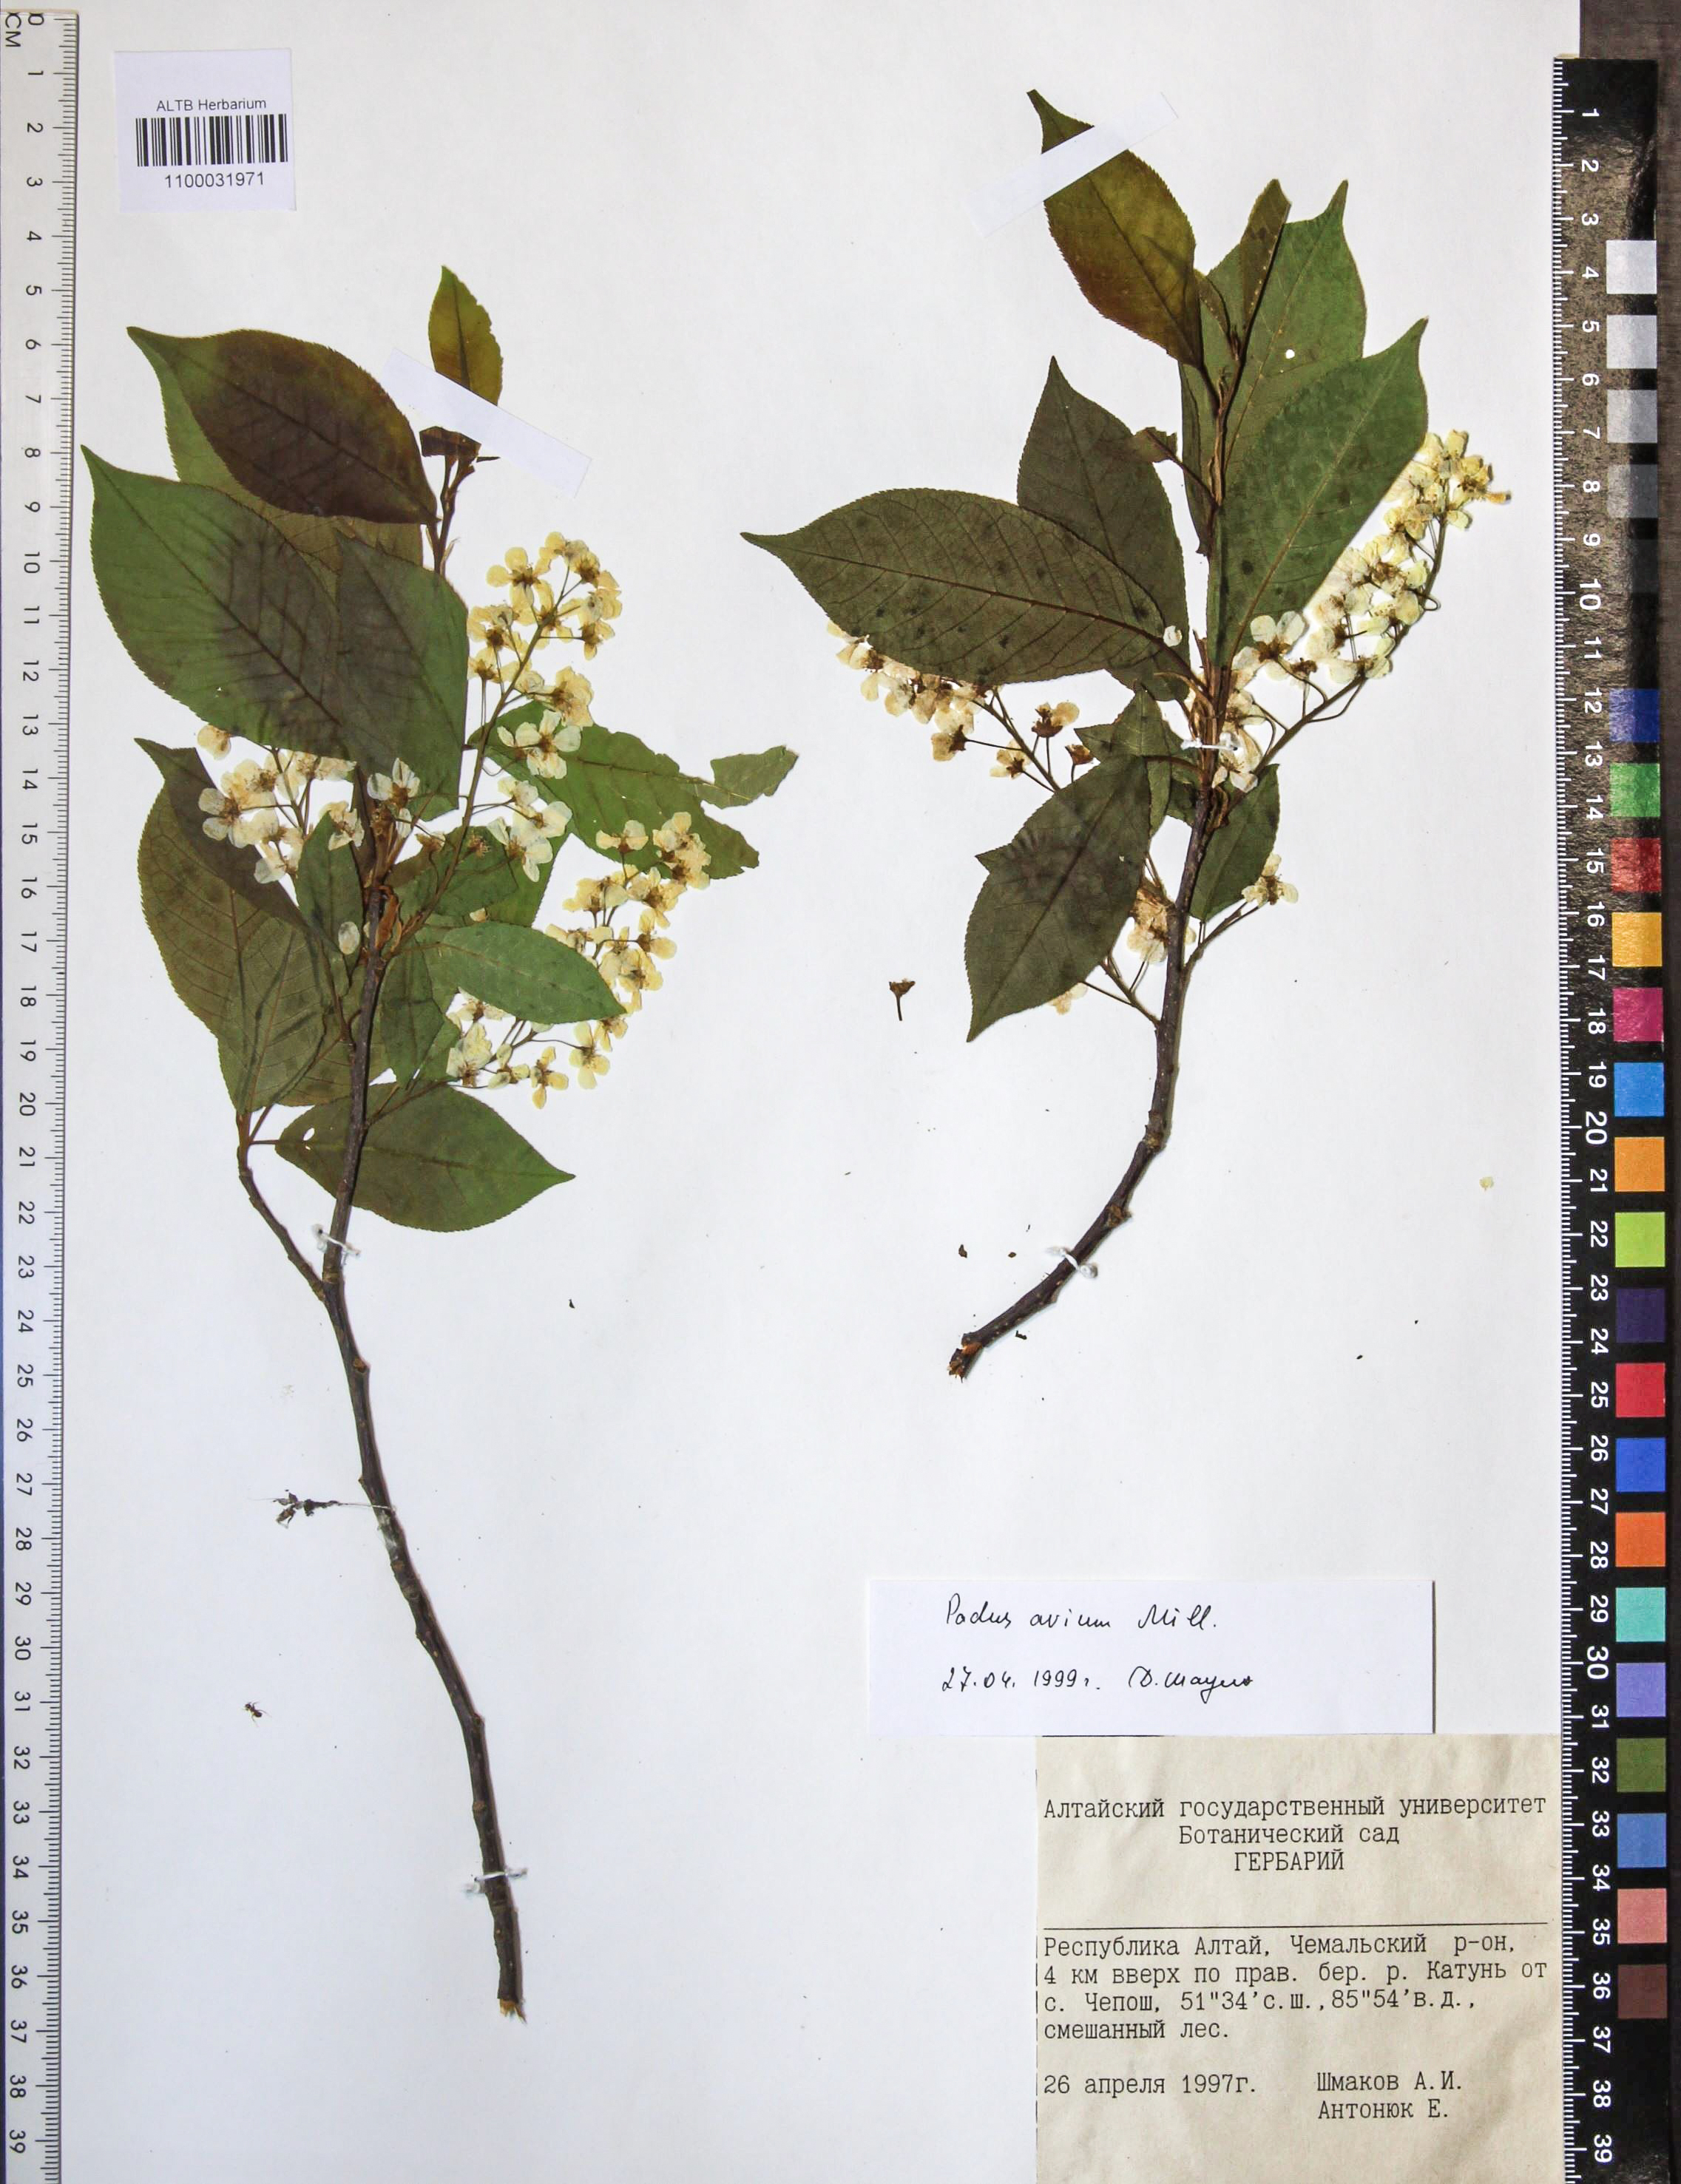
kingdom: Plantae
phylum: Tracheophyta
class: Magnoliopsida
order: Rosales
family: Rosaceae
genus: Prunus
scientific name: Prunus padus
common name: Bird cherry
